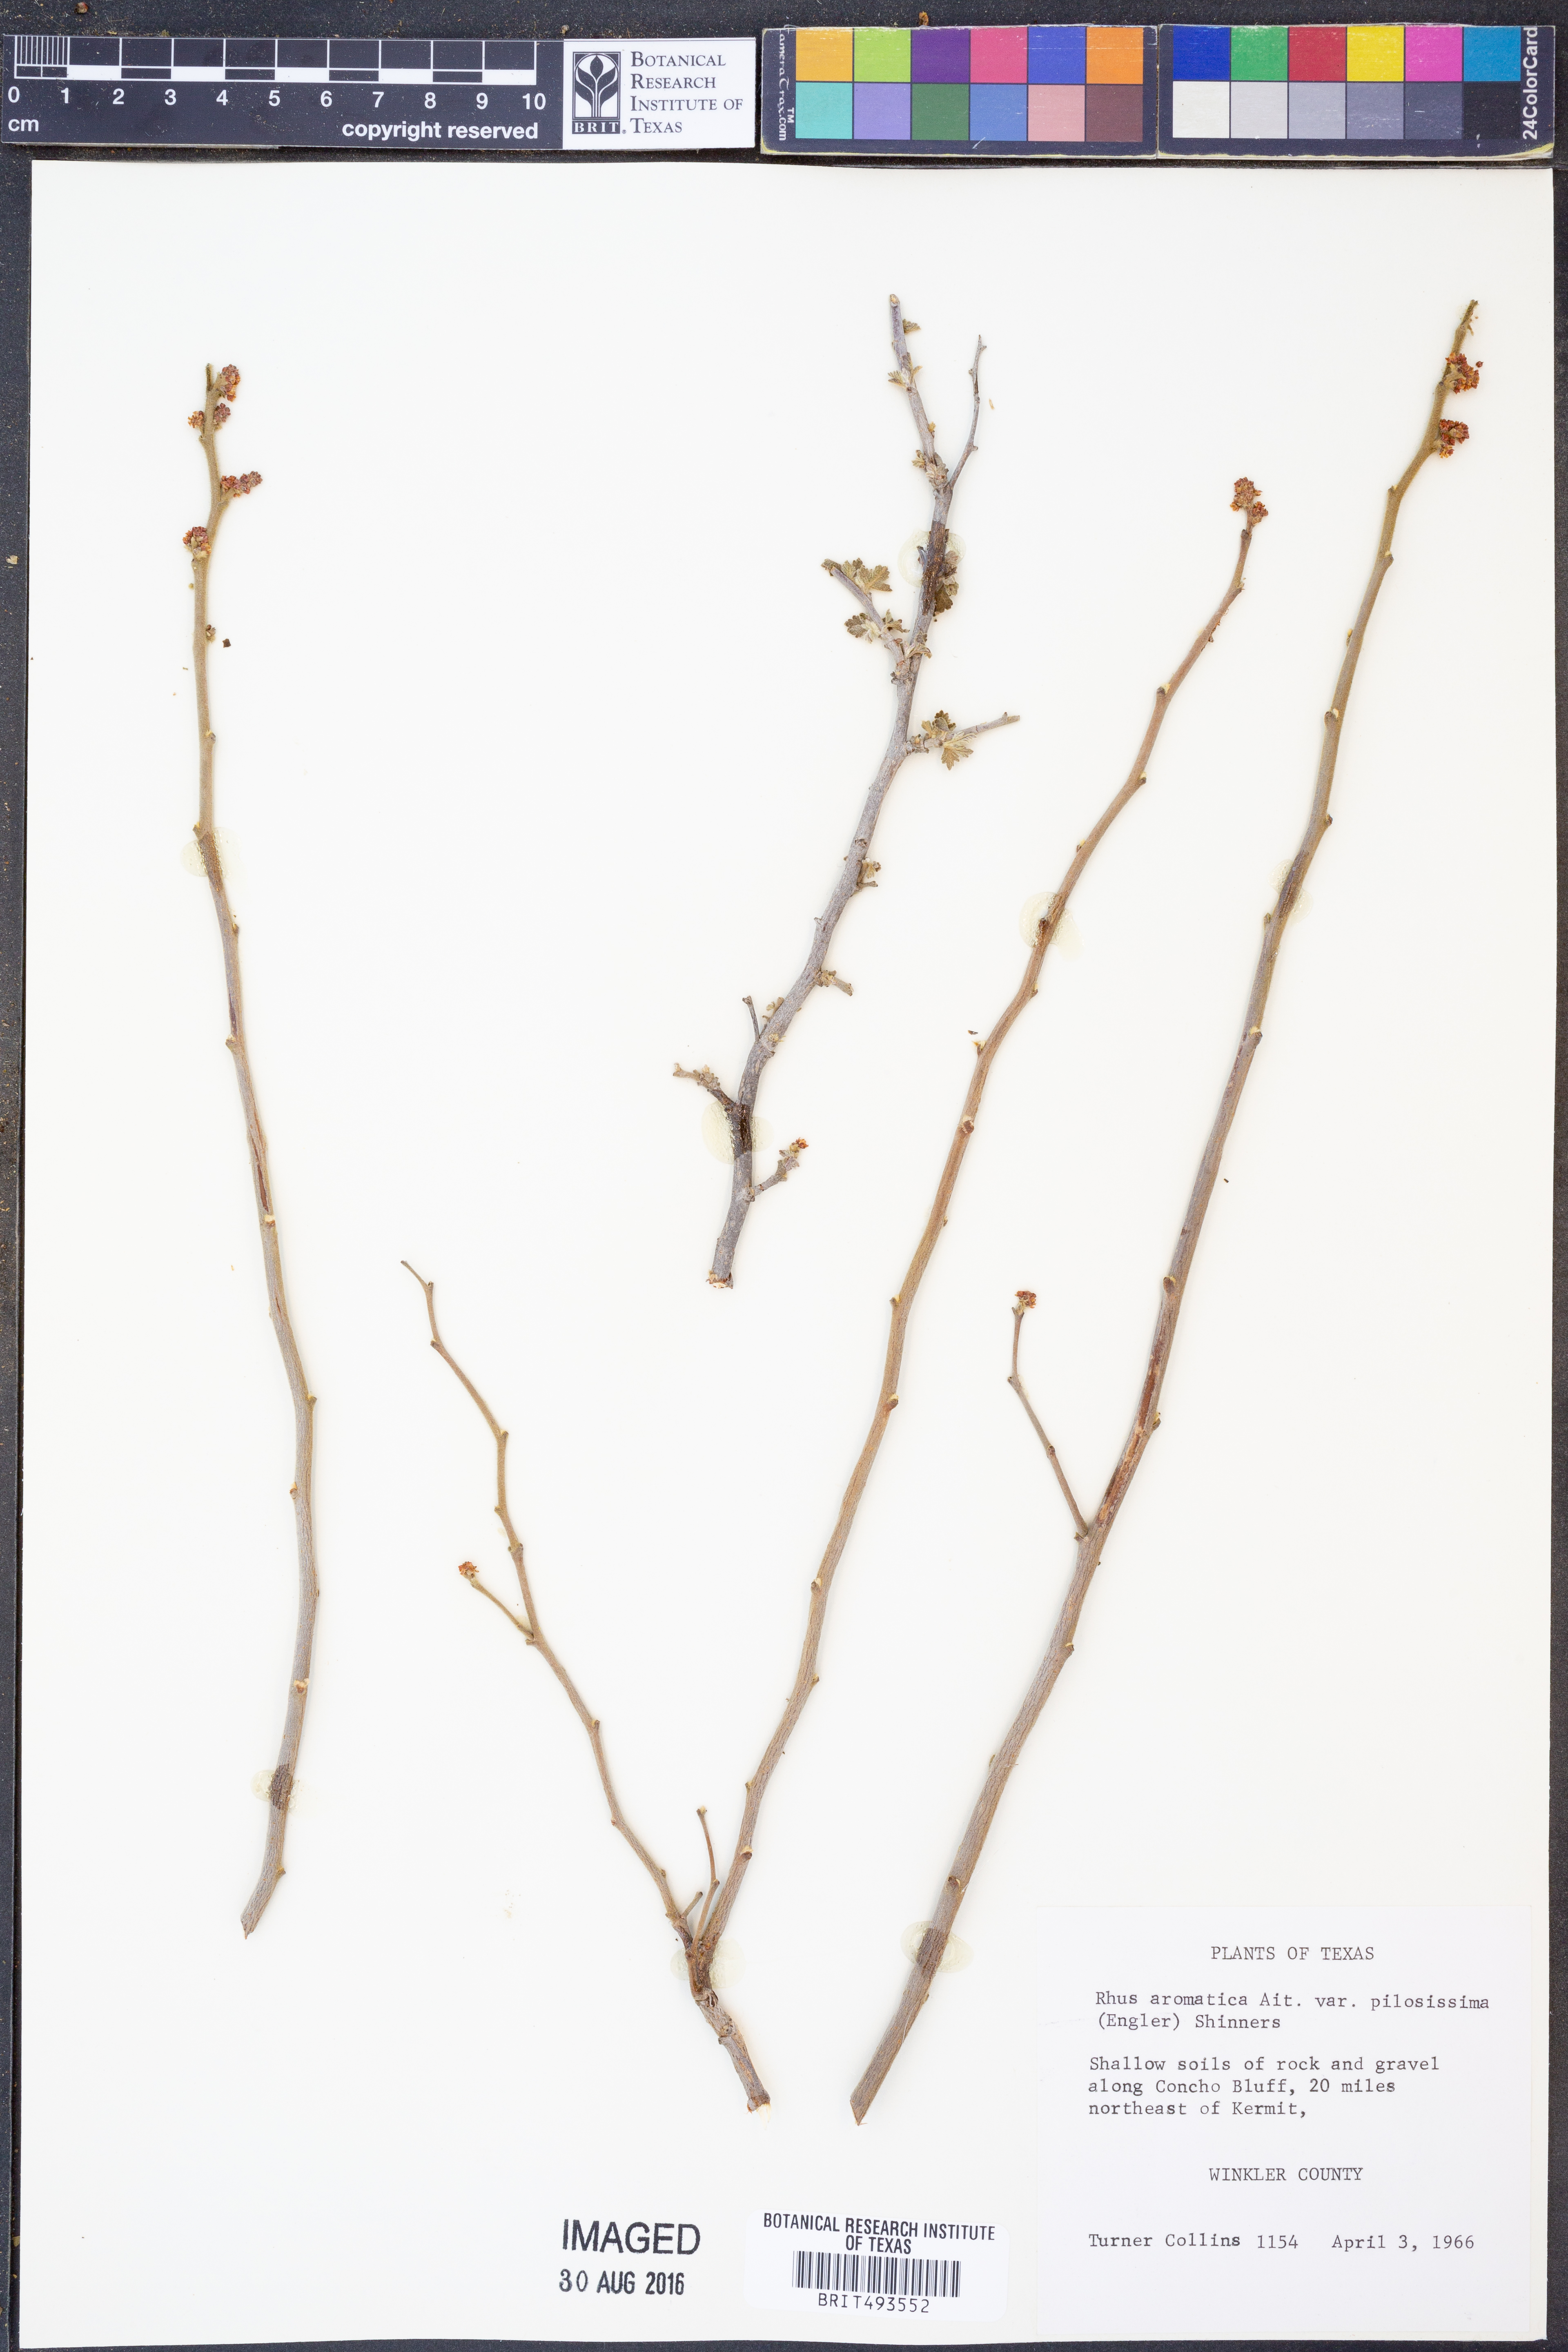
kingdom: Plantae
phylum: Tracheophyta
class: Magnoliopsida
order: Sapindales
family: Anacardiaceae
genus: Rhus
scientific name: Rhus trilobata
